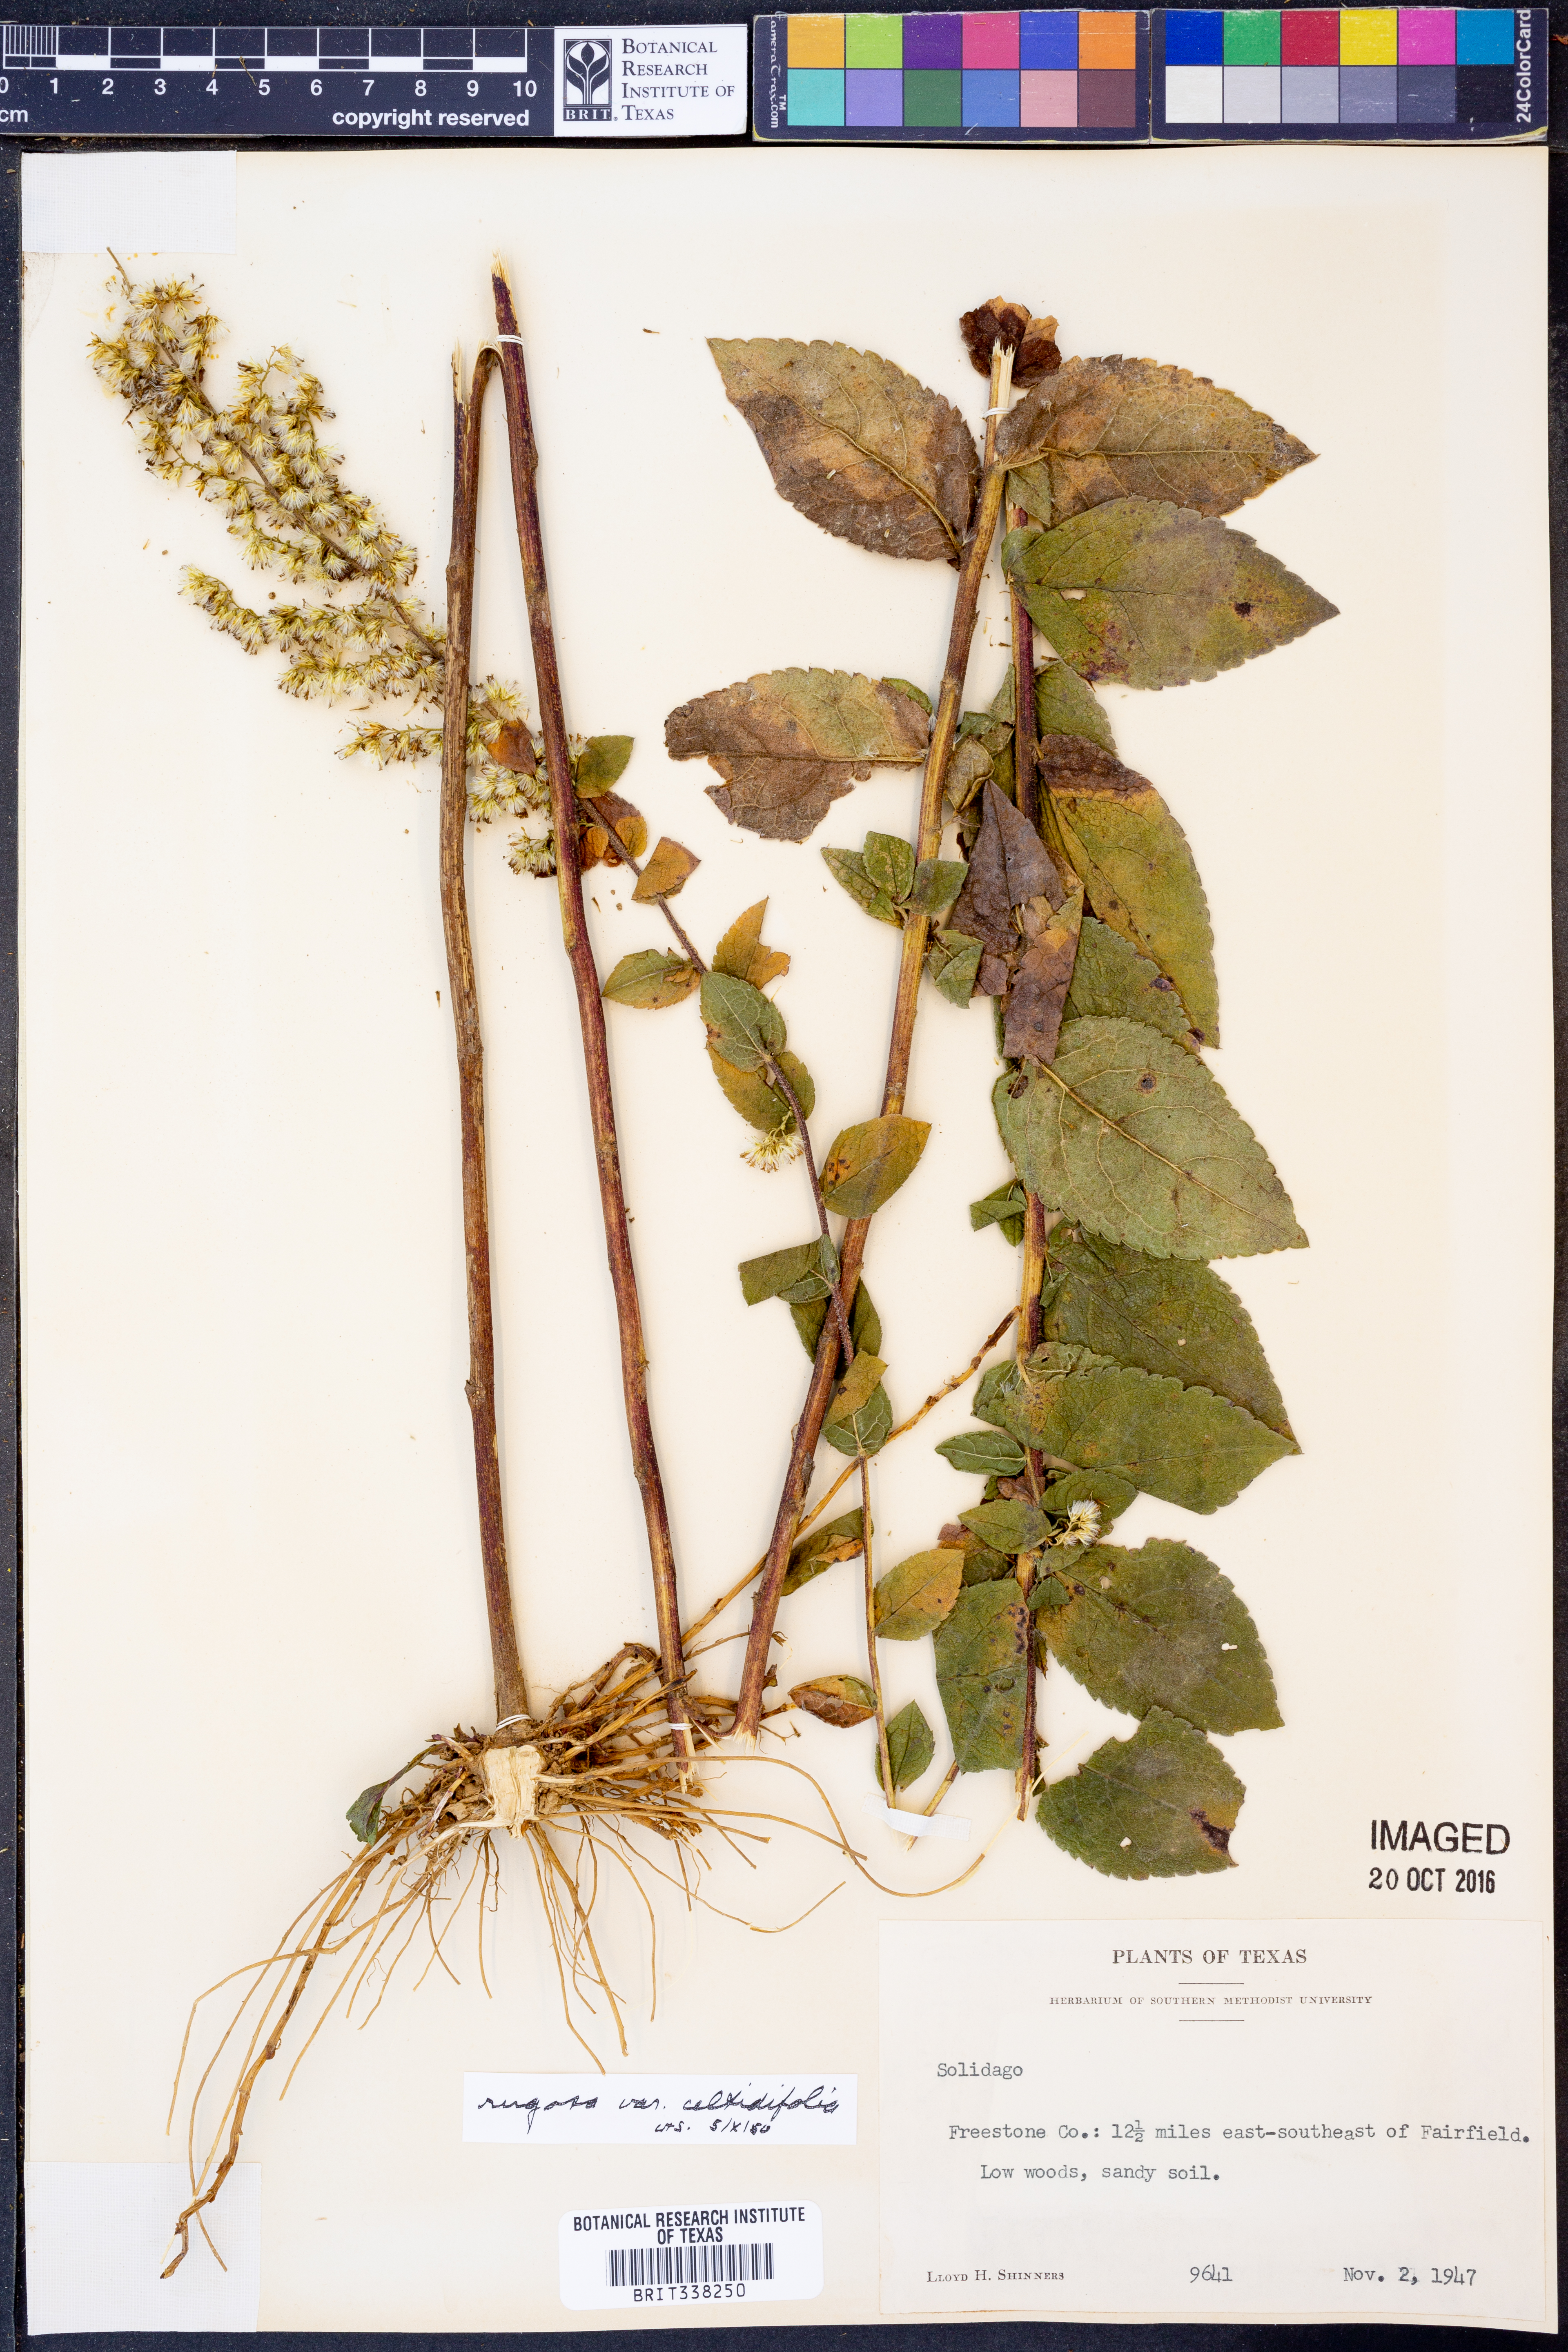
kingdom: Plantae
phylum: Tracheophyta
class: Magnoliopsida
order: Asterales
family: Asteraceae
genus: Solidago
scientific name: Solidago rugosa
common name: Rough-stemmed goldenrod
